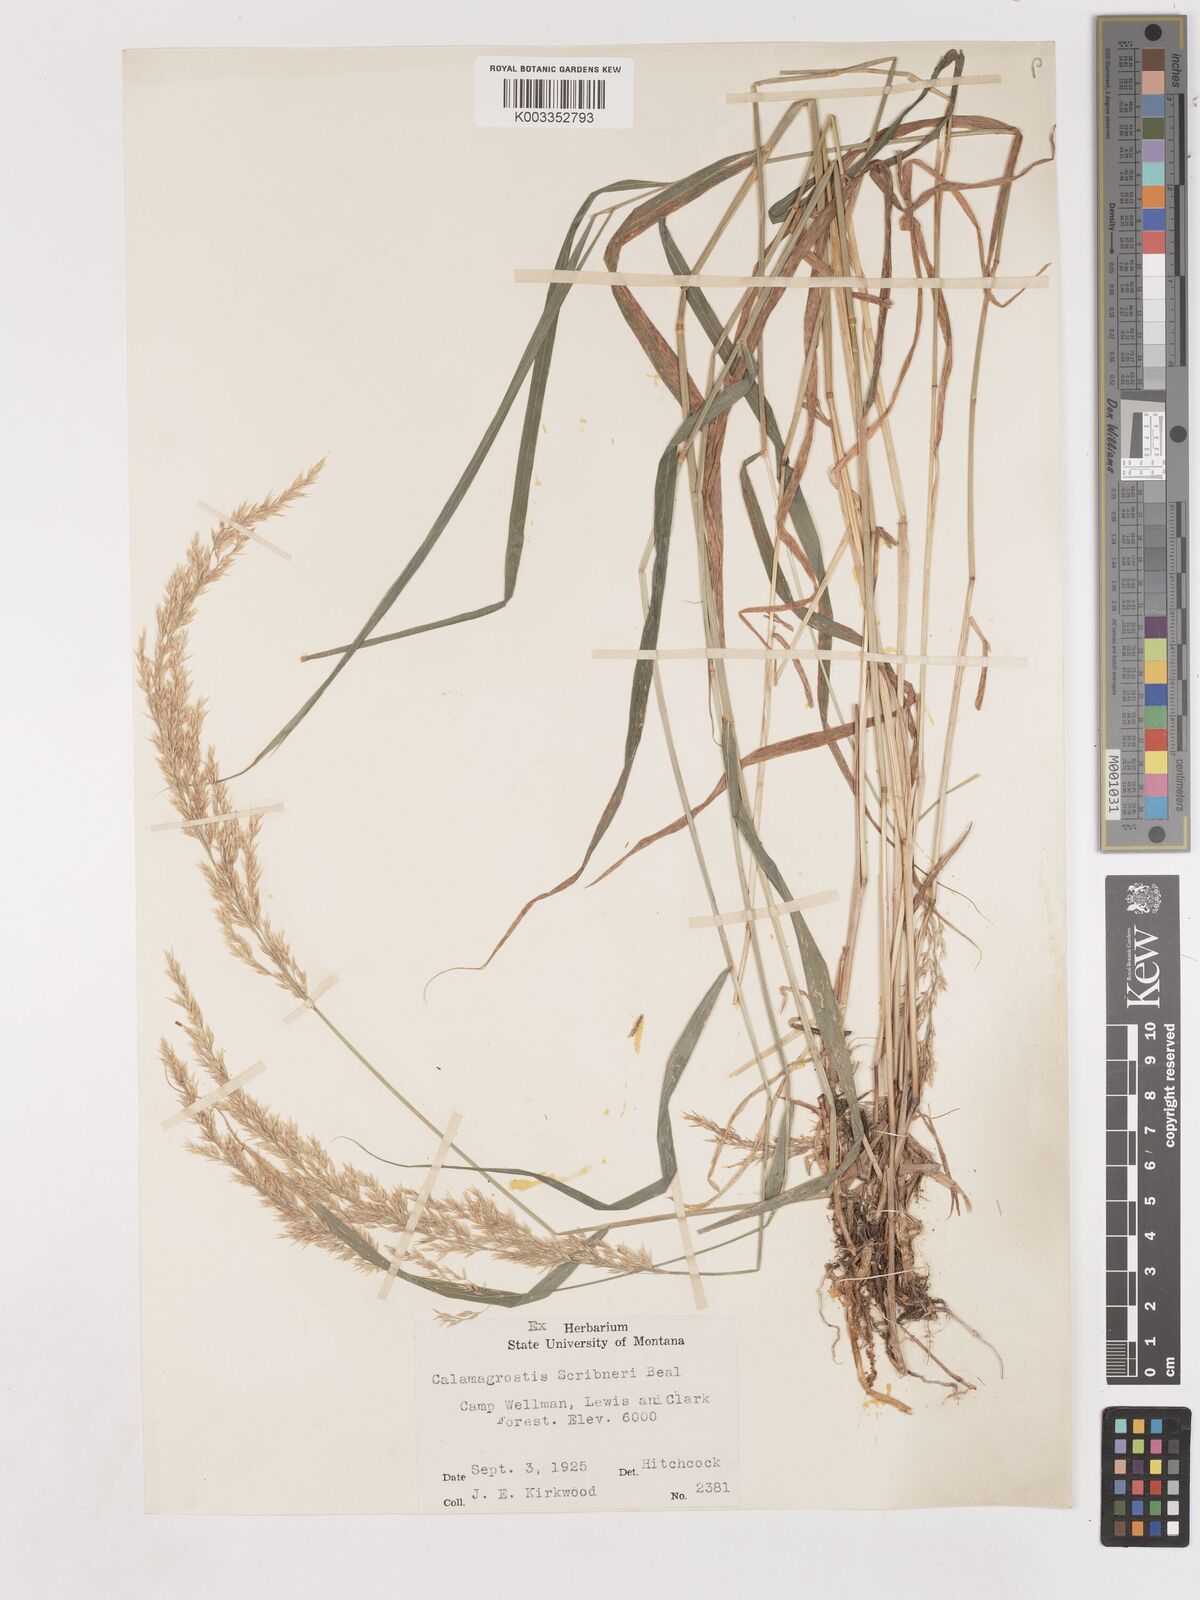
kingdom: Plantae
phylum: Tracheophyta
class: Liliopsida
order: Poales
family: Poaceae
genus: Calamagrostis
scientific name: Calamagrostis canadensis
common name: Canada bluejoint
